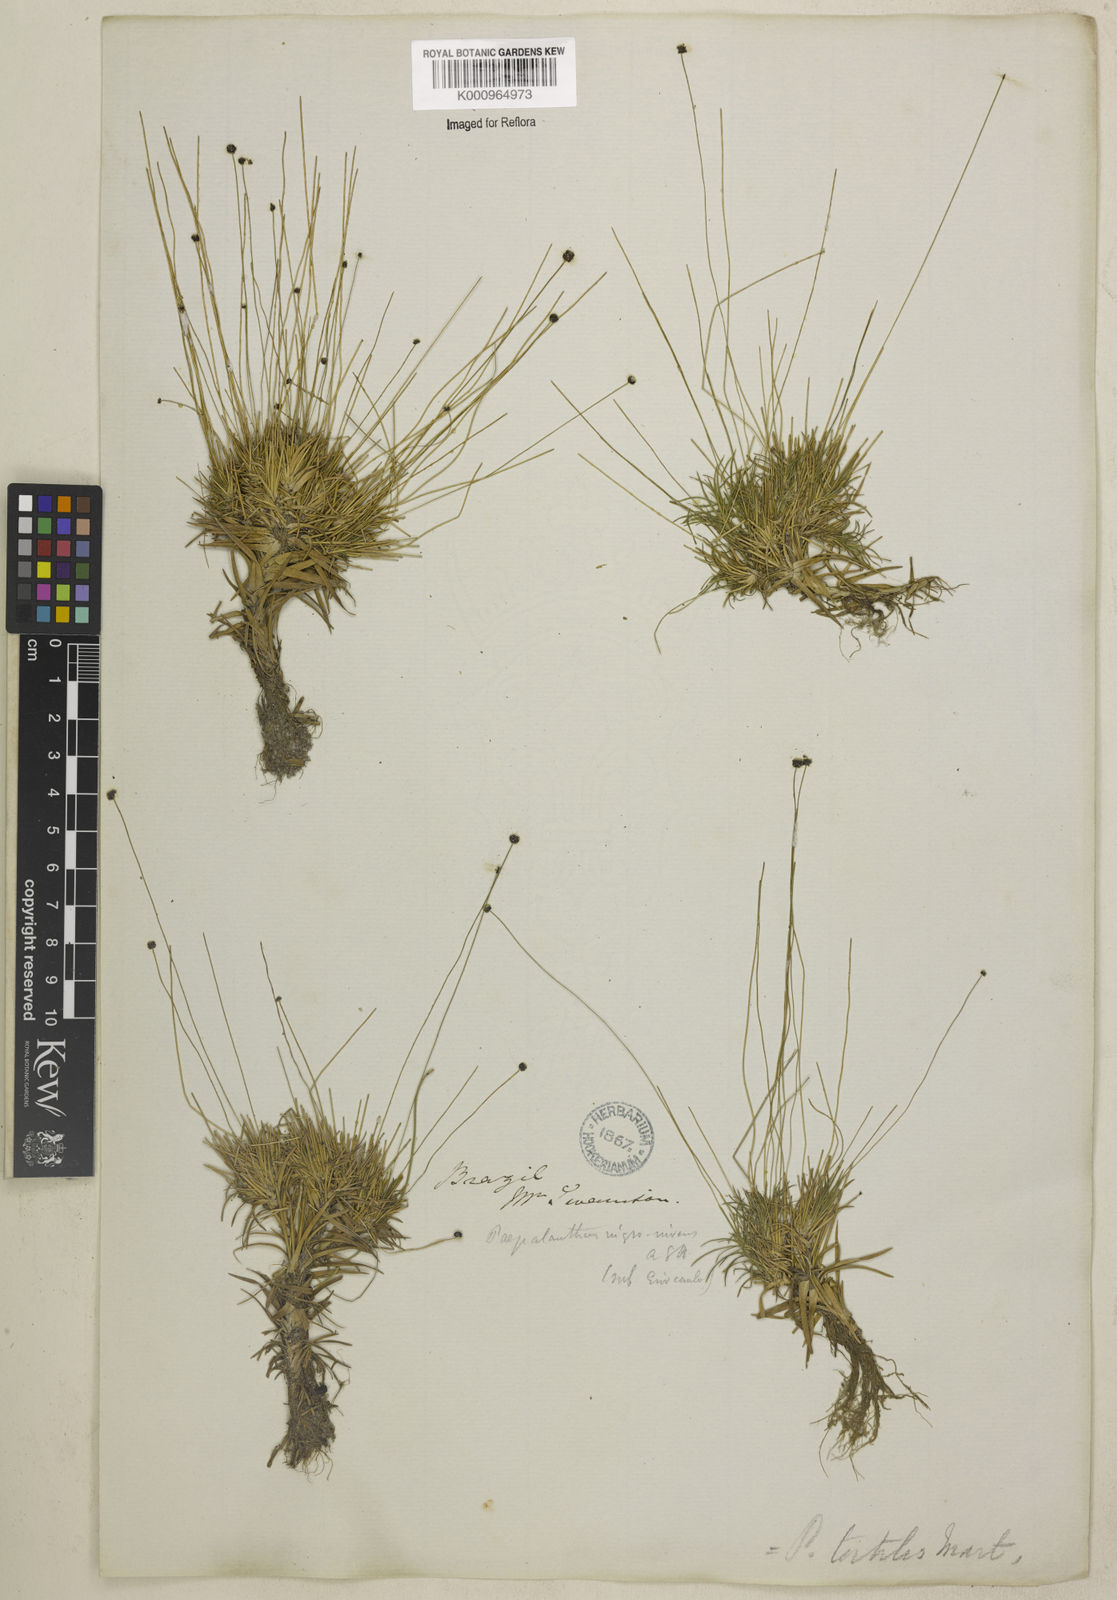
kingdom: Plantae
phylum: Tracheophyta
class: Liliopsida
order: Poales
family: Eriocaulaceae
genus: Paepalanthus
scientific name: Paepalanthus
